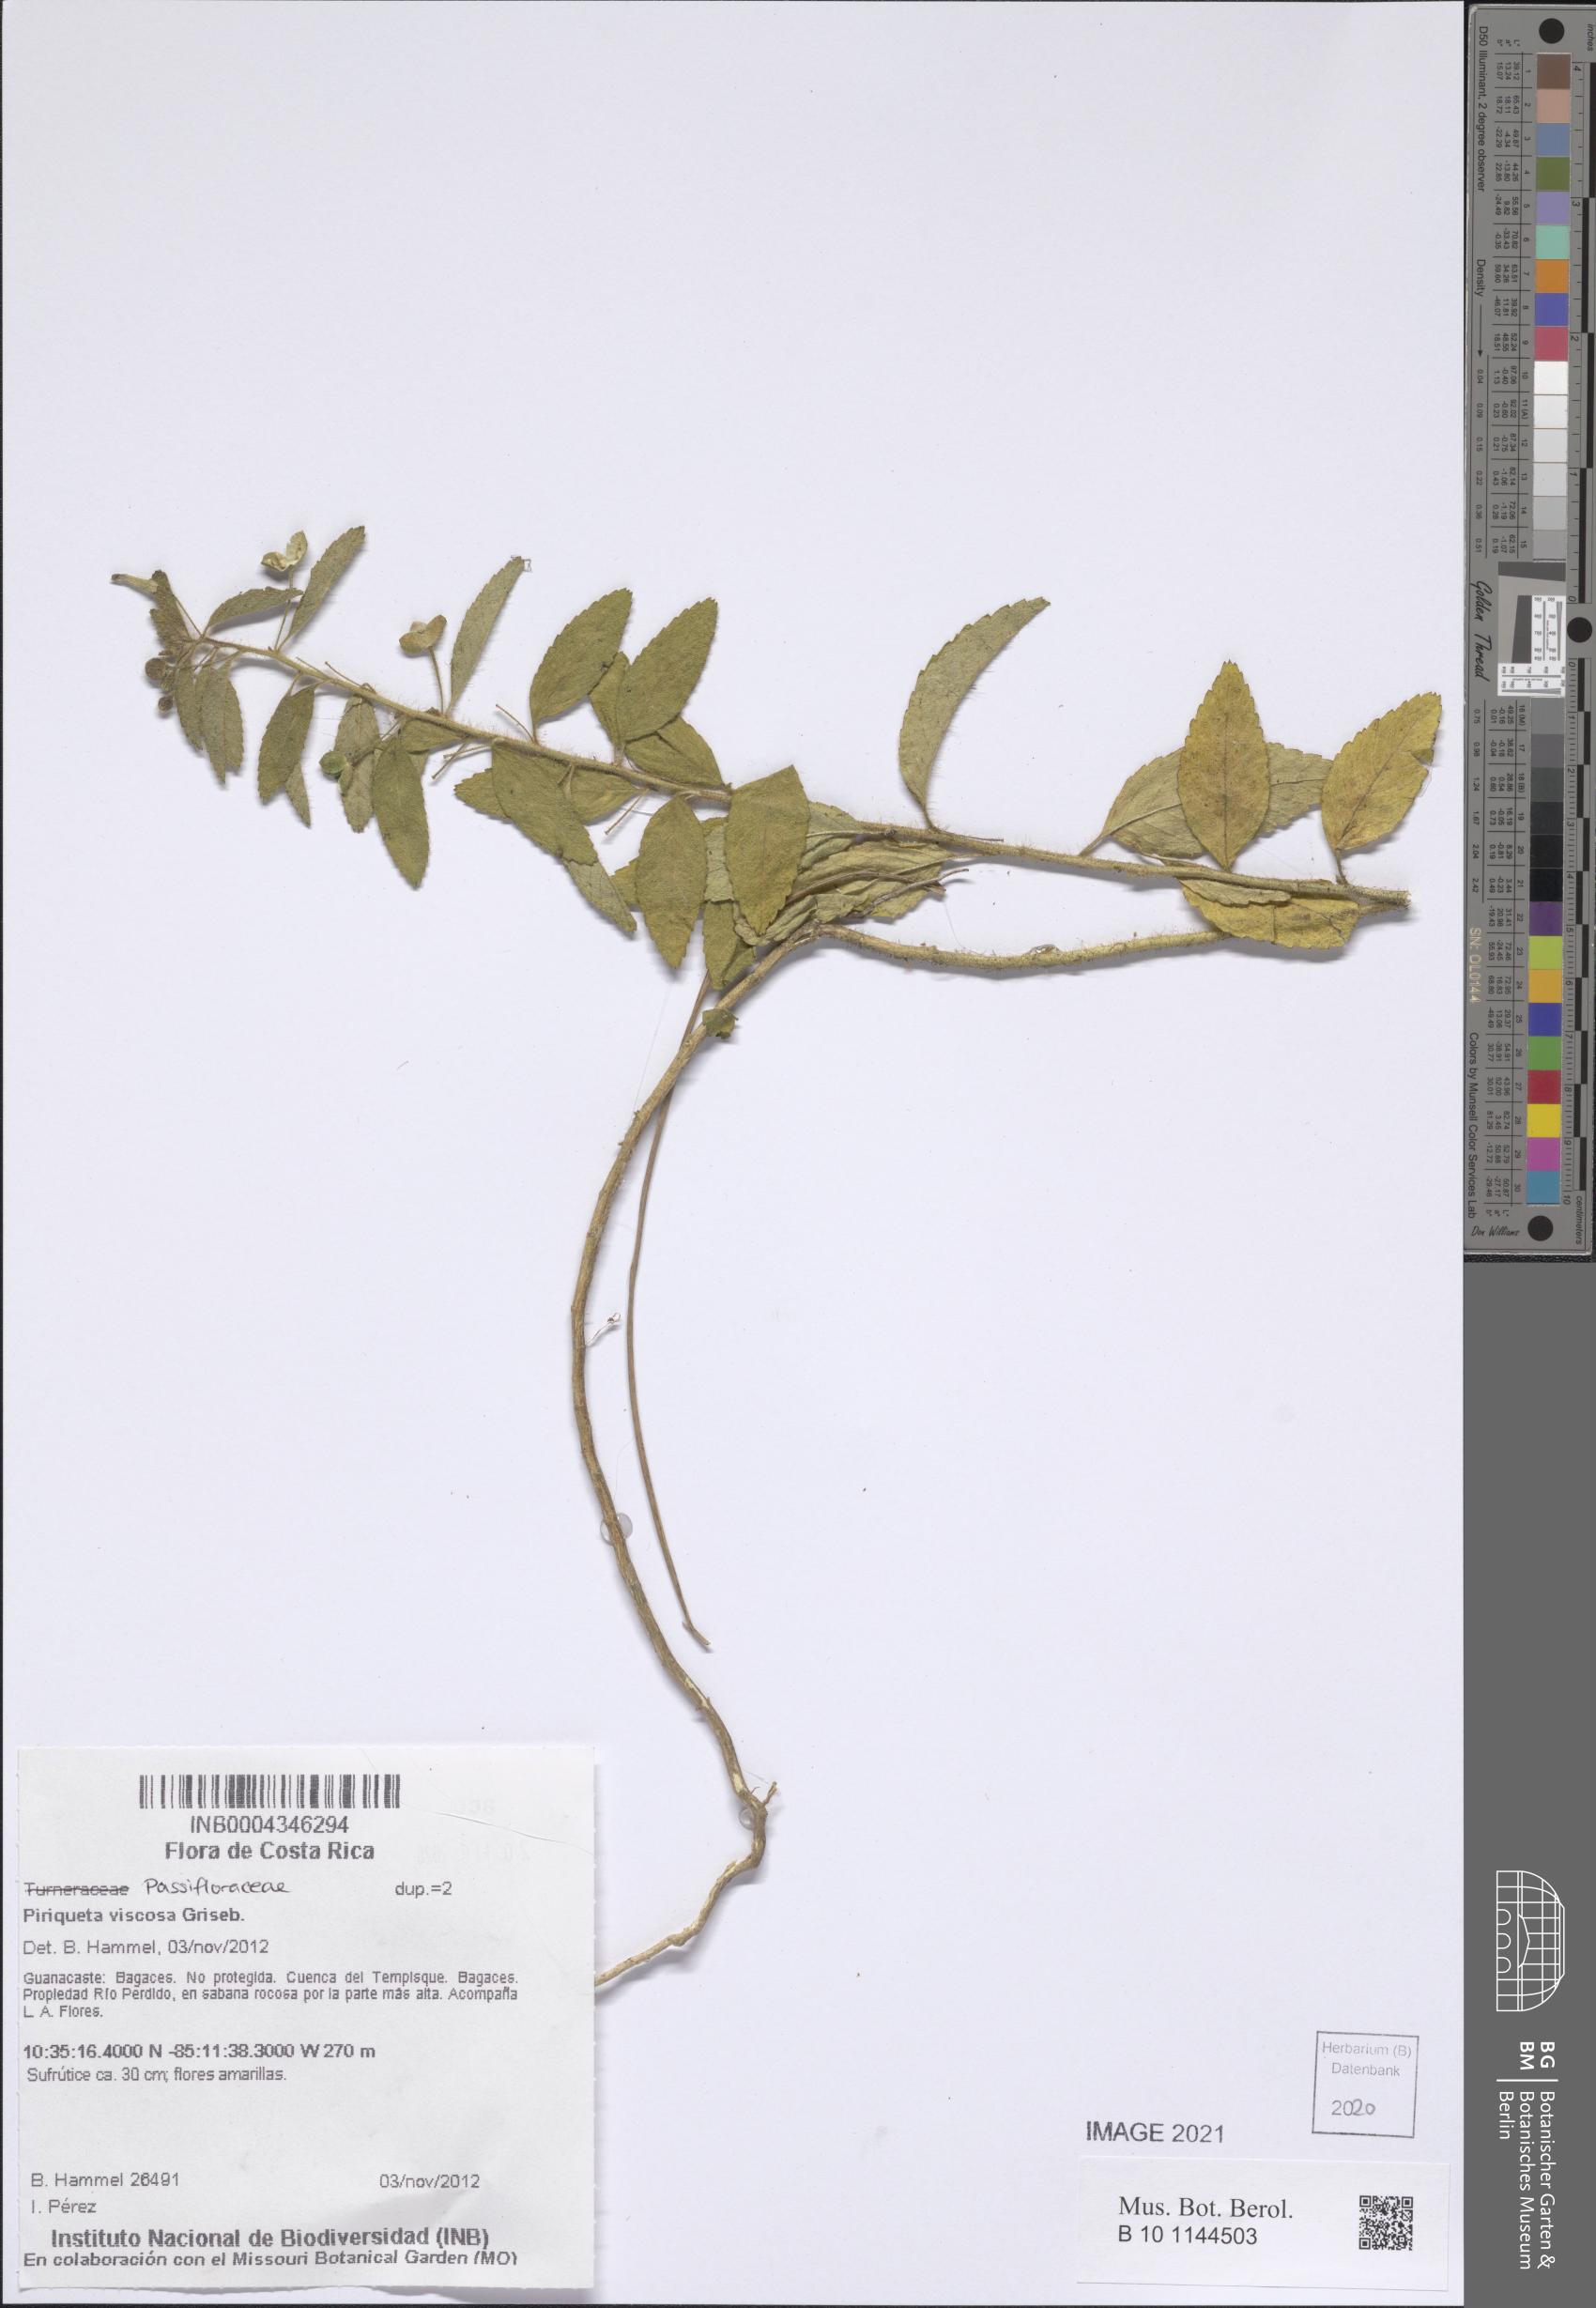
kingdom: Plantae
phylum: Tracheophyta
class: Magnoliopsida
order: Malpighiales
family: Turneraceae
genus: Piriqueta
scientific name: Piriqueta viscosa
